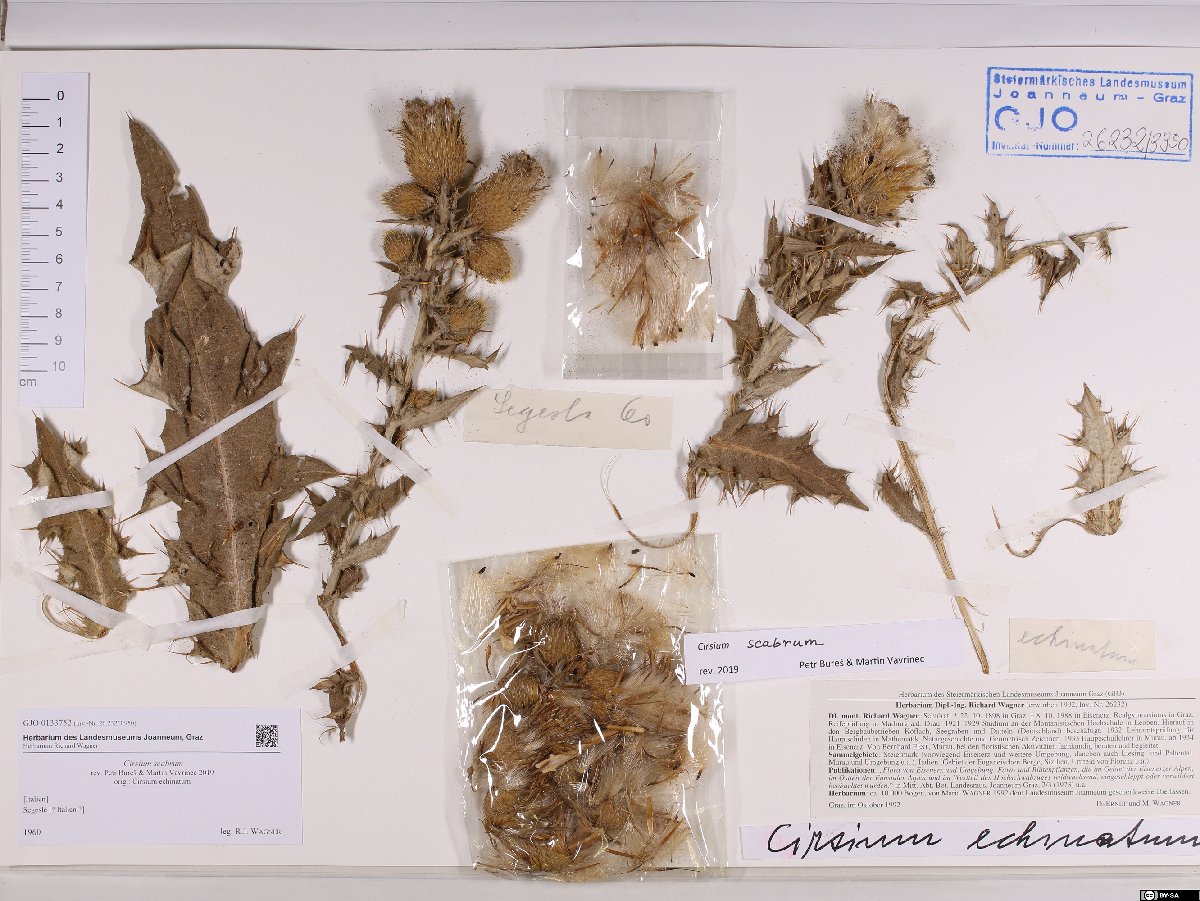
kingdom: Plantae
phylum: Tracheophyta
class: Magnoliopsida
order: Asterales
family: Asteraceae
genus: Lophiolepis
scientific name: Lophiolepis scabra
